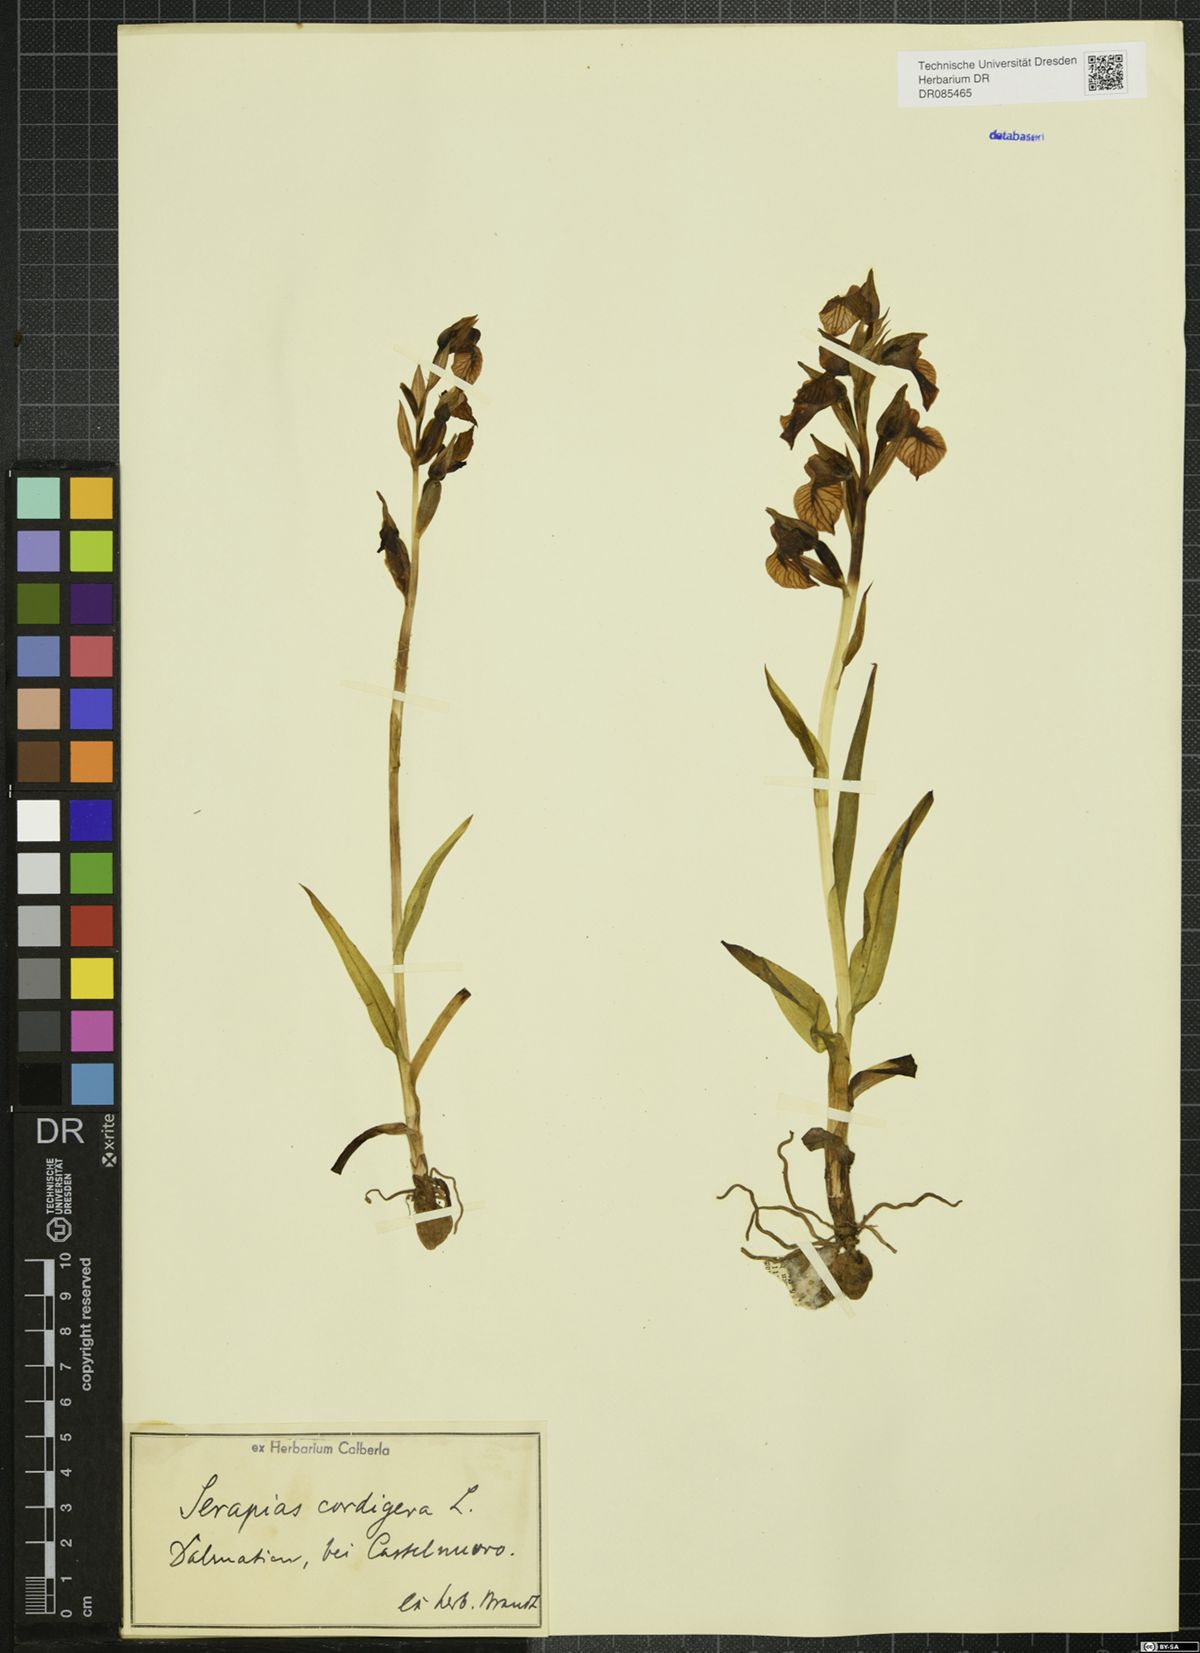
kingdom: Plantae
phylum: Tracheophyta
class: Liliopsida
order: Asparagales
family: Orchidaceae
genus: Serapias
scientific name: Serapias cordigera
